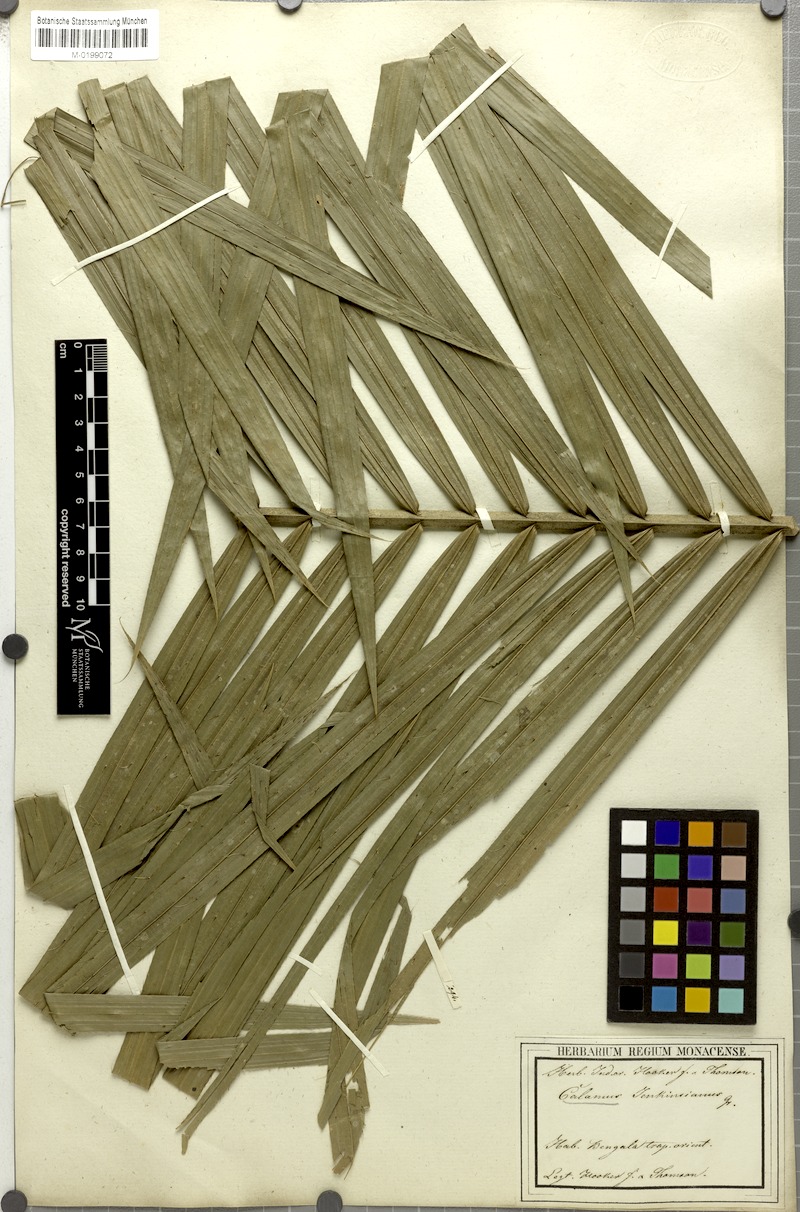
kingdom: Plantae
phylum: Tracheophyta
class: Liliopsida
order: Arecales
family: Arecaceae
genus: Calamus
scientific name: Calamus melanochaetes
